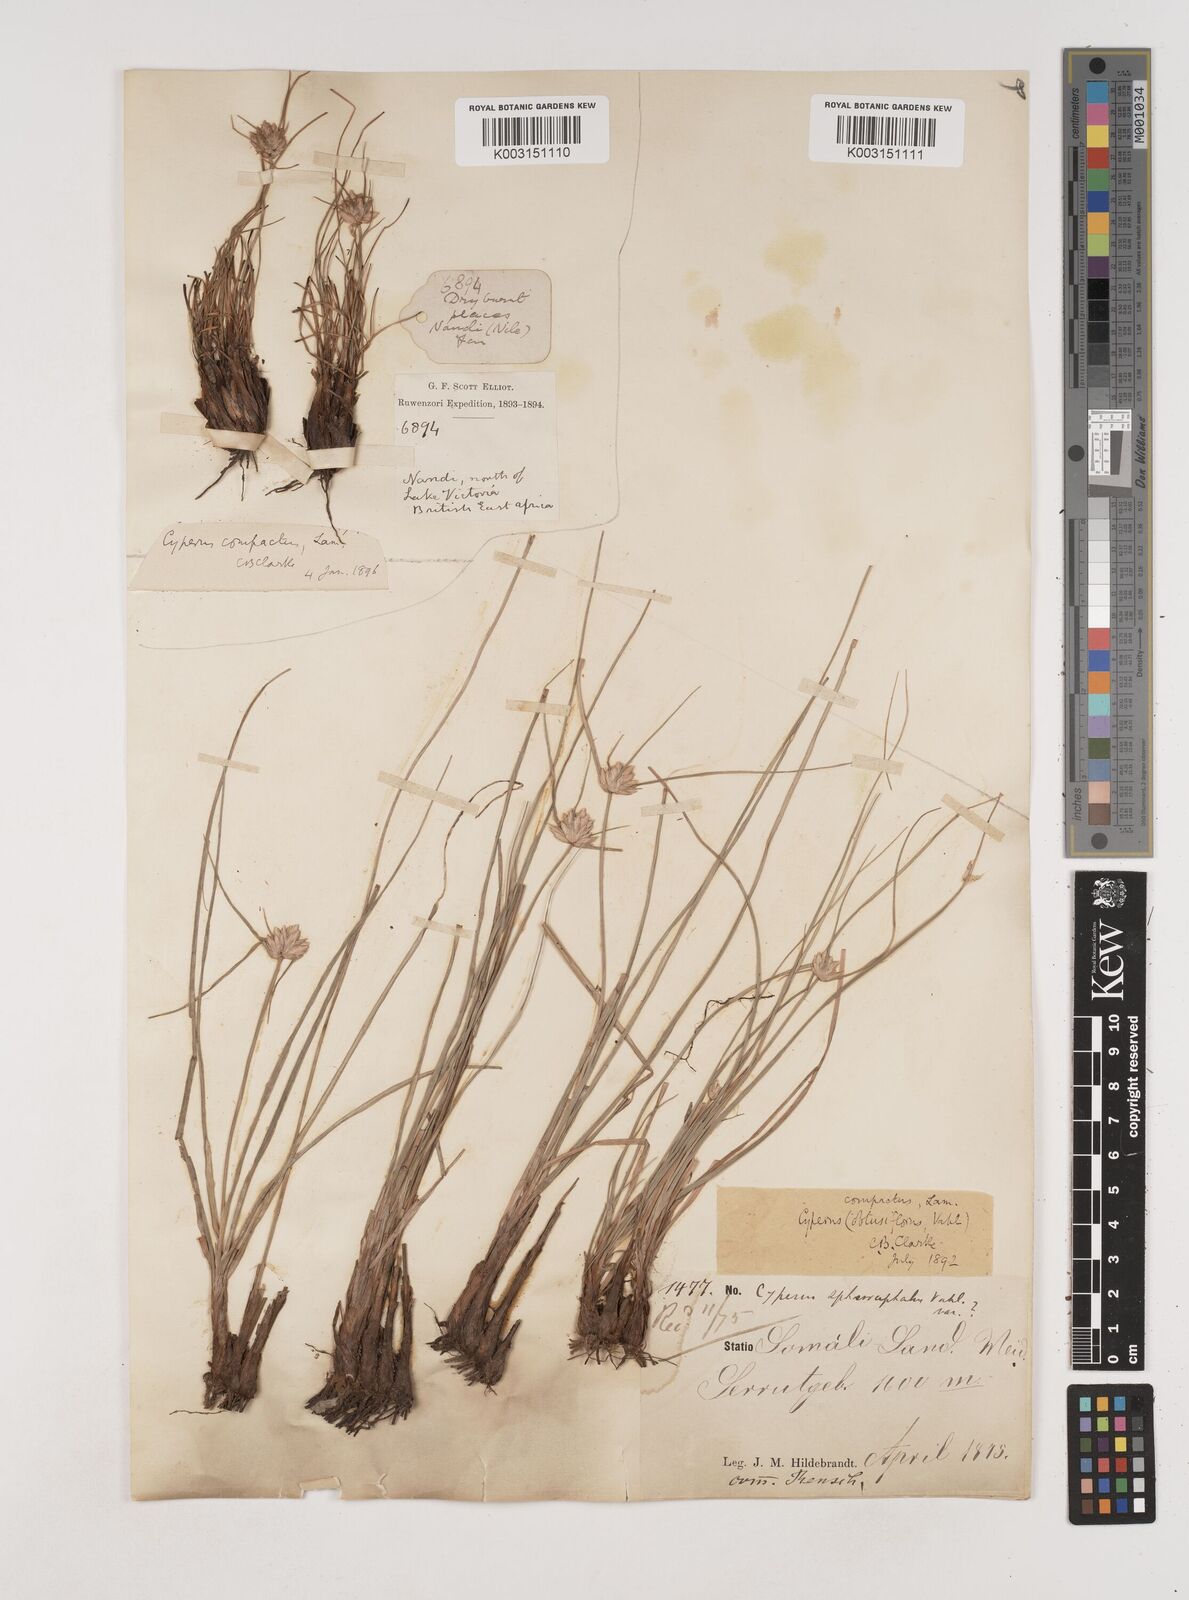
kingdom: Plantae
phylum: Tracheophyta
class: Liliopsida
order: Poales
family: Cyperaceae
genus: Cyperus
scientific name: Cyperus niveus
